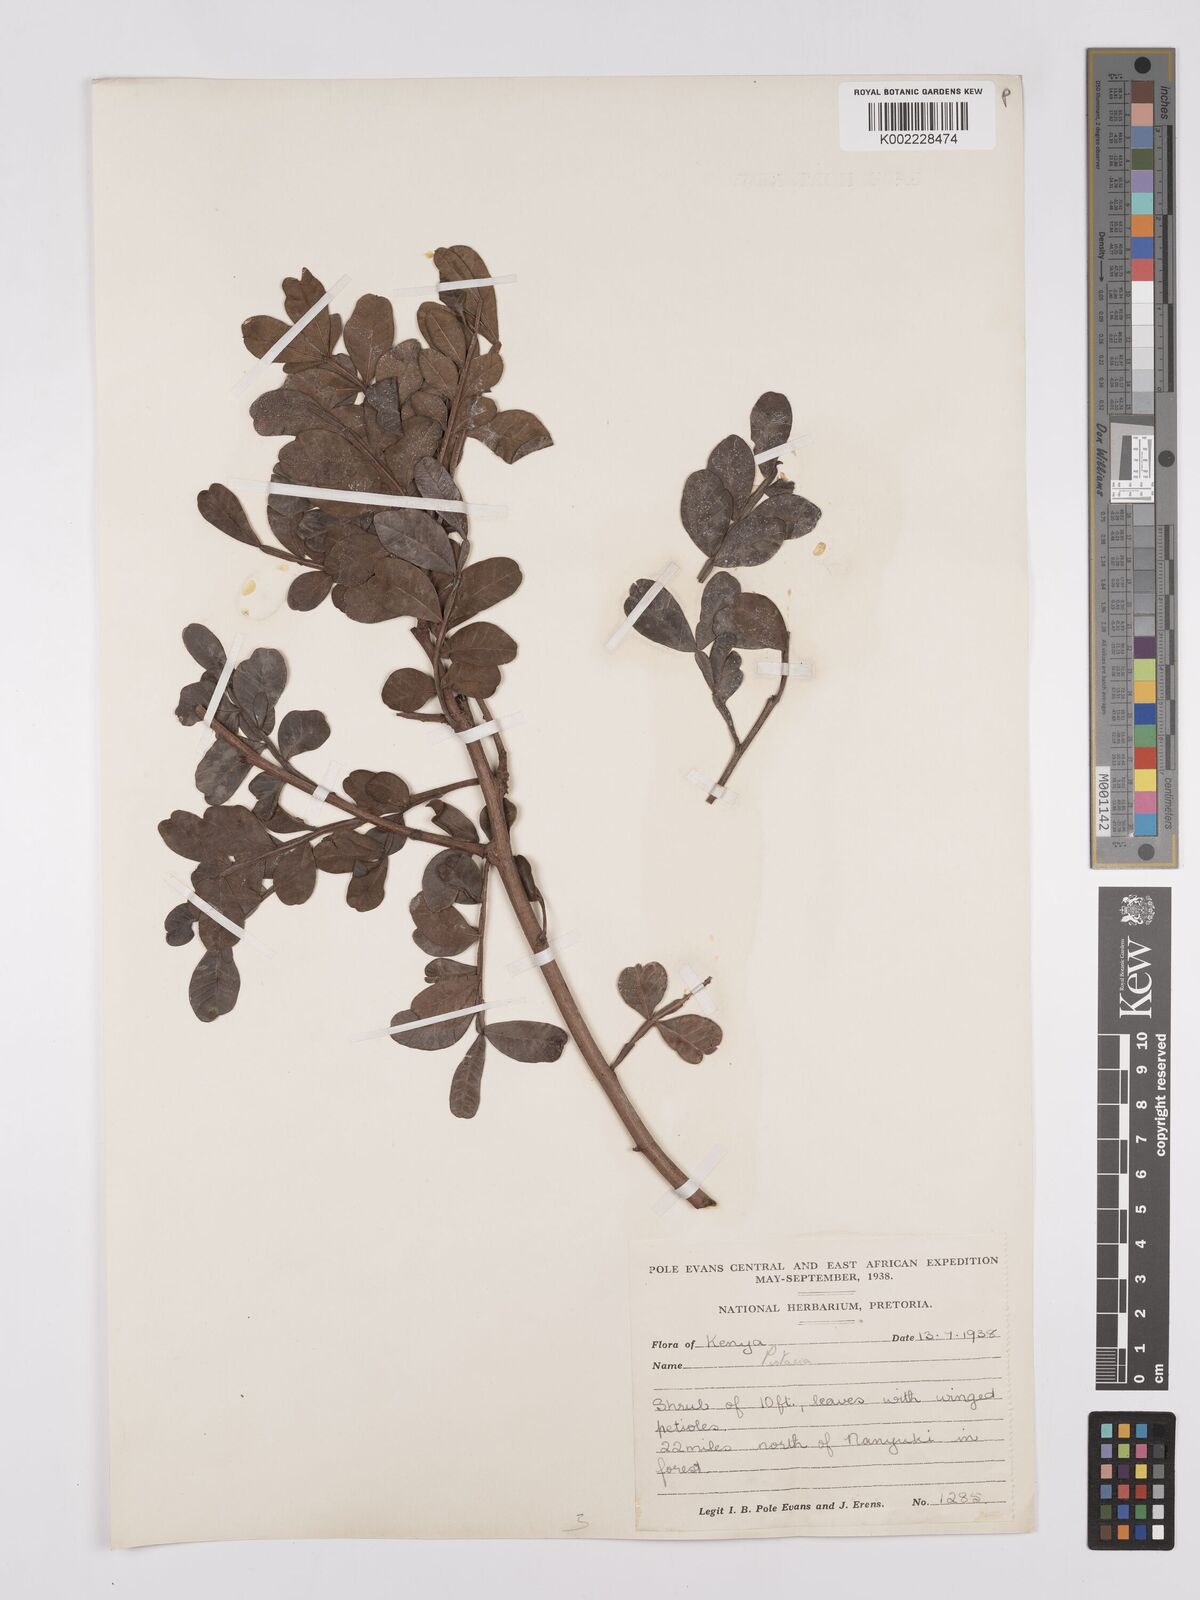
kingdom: Plantae
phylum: Tracheophyta
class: Magnoliopsida
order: Sapindales
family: Anacardiaceae
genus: Pistacia
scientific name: Pistacia lentiscus
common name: Lentisk
